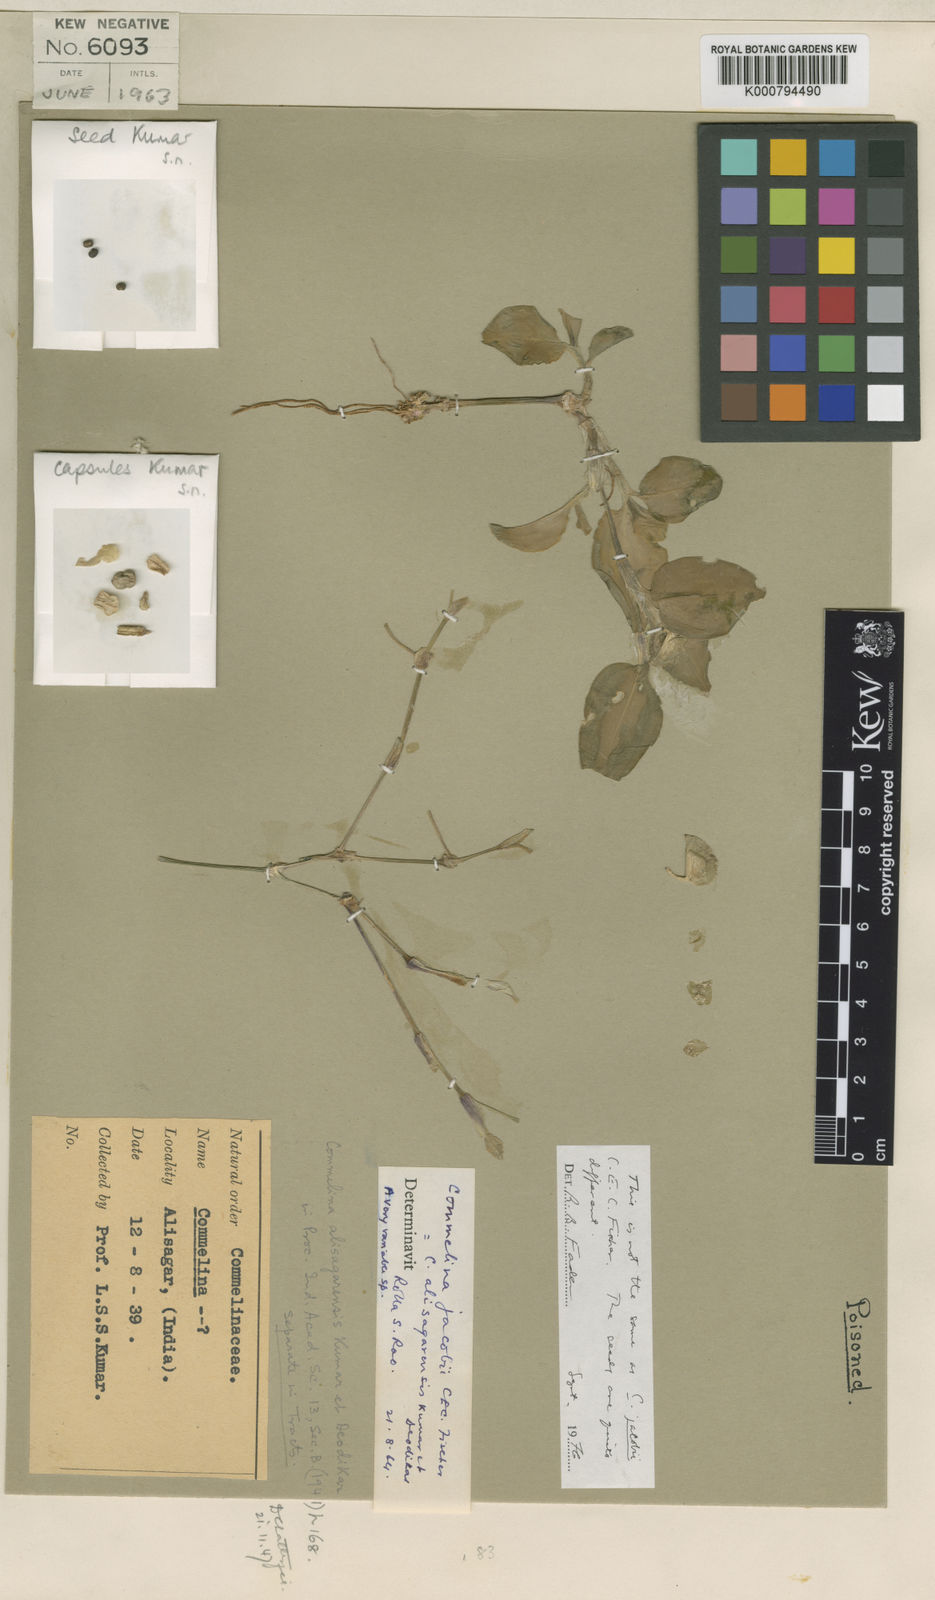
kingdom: Plantae
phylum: Tracheophyta
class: Liliopsida
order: Commelinales
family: Commelinaceae
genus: Commelina
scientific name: Commelina petersii
